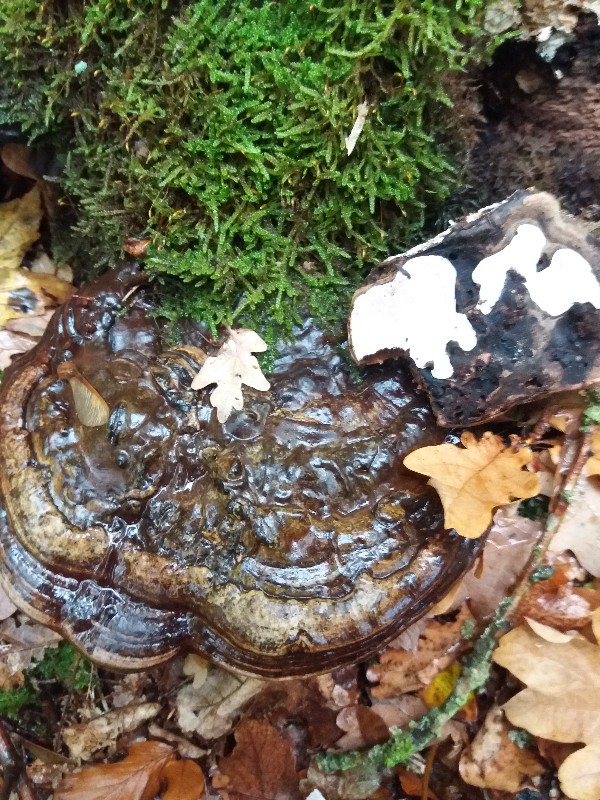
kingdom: Fungi
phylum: Basidiomycota
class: Agaricomycetes
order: Polyporales
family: Polyporaceae
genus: Ganoderma
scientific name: Ganoderma applanatum
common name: flad lakporesvamp
